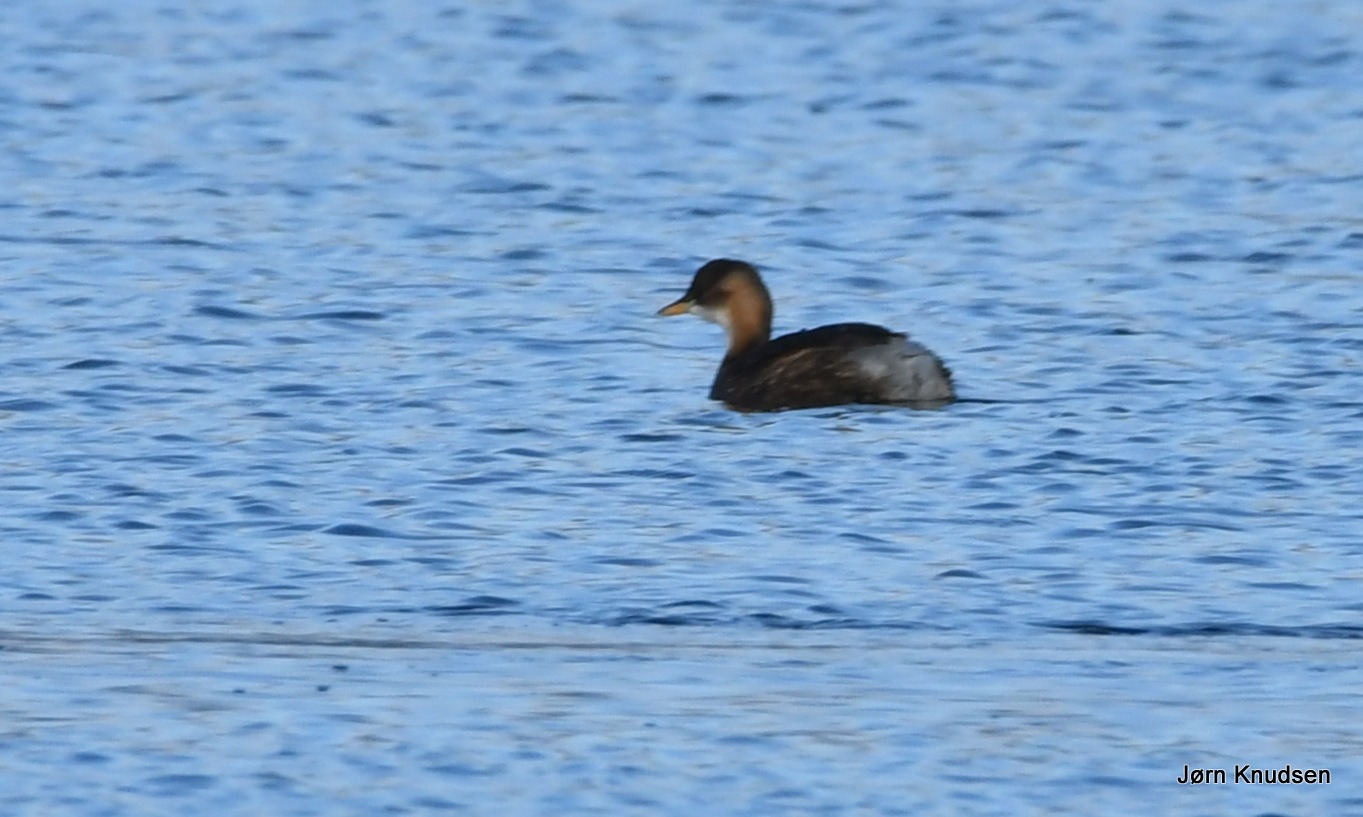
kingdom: Animalia
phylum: Chordata
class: Aves
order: Podicipediformes
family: Podicipedidae
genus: Tachybaptus
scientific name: Tachybaptus ruficollis
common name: Lille lappedykker
